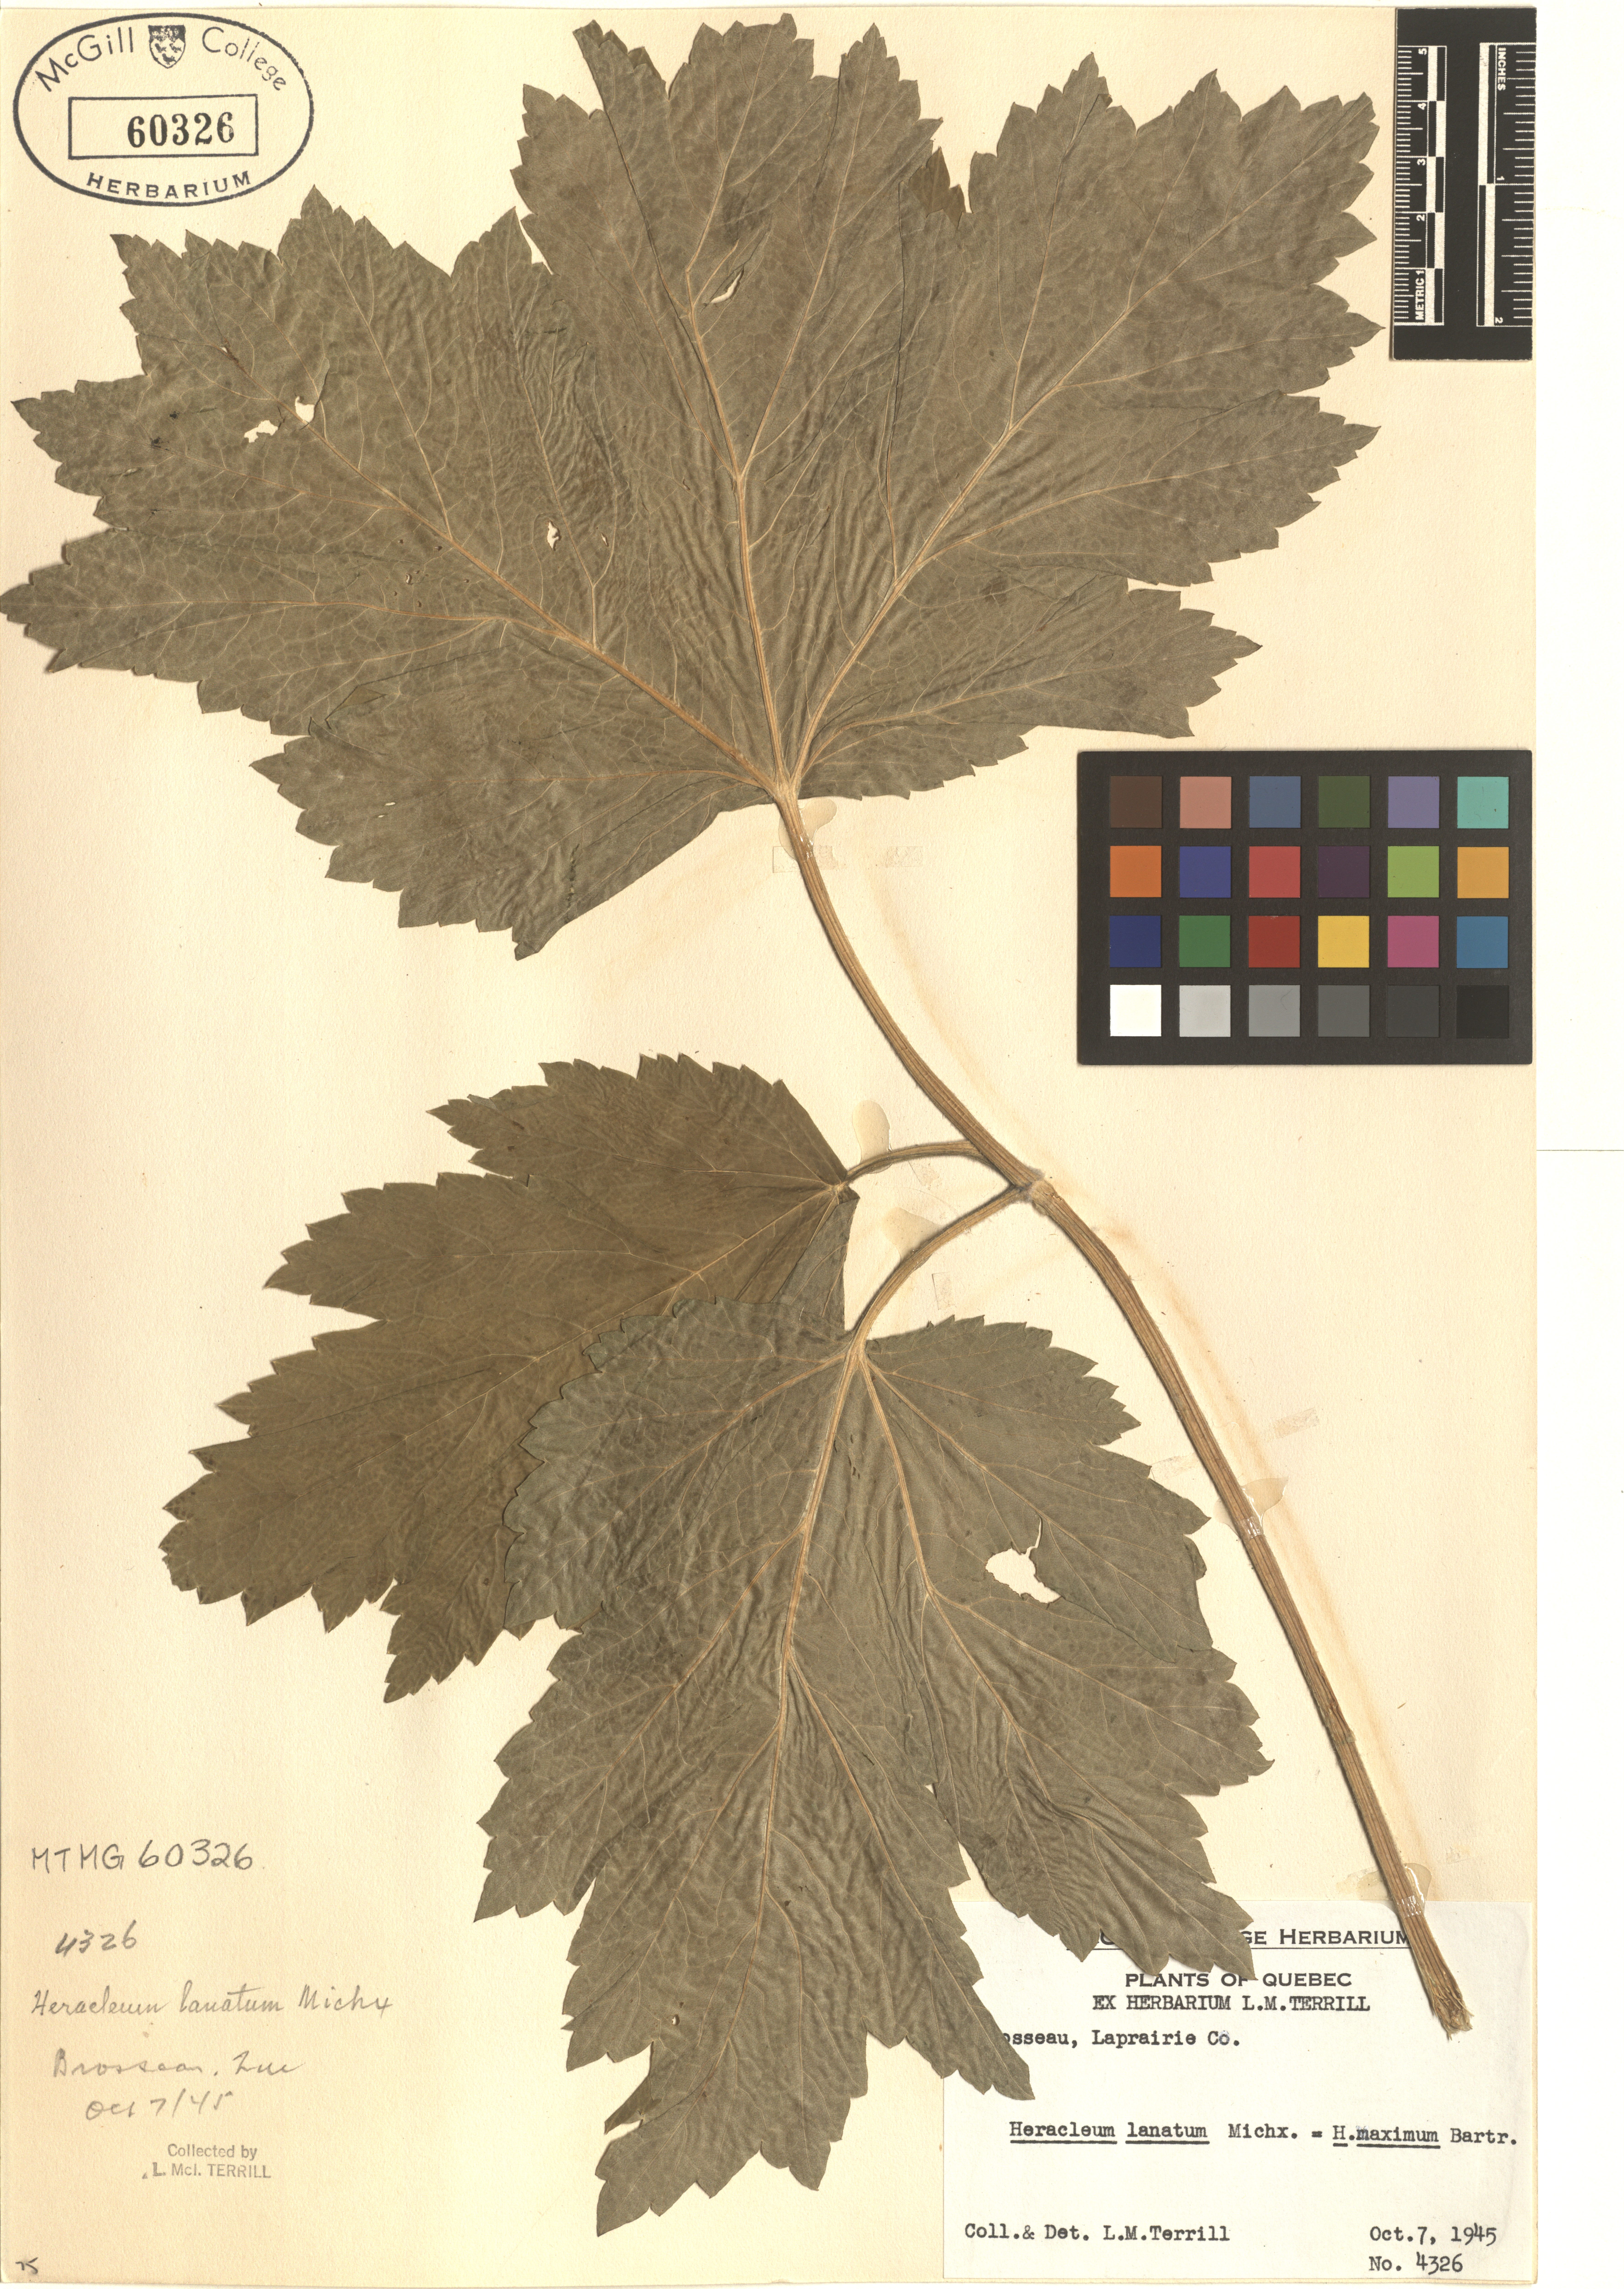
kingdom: Plantae
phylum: Tracheophyta
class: Magnoliopsida
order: Apiales
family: Apiaceae
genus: Heracleum
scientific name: Heracleum maximum
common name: American cow parsnip
